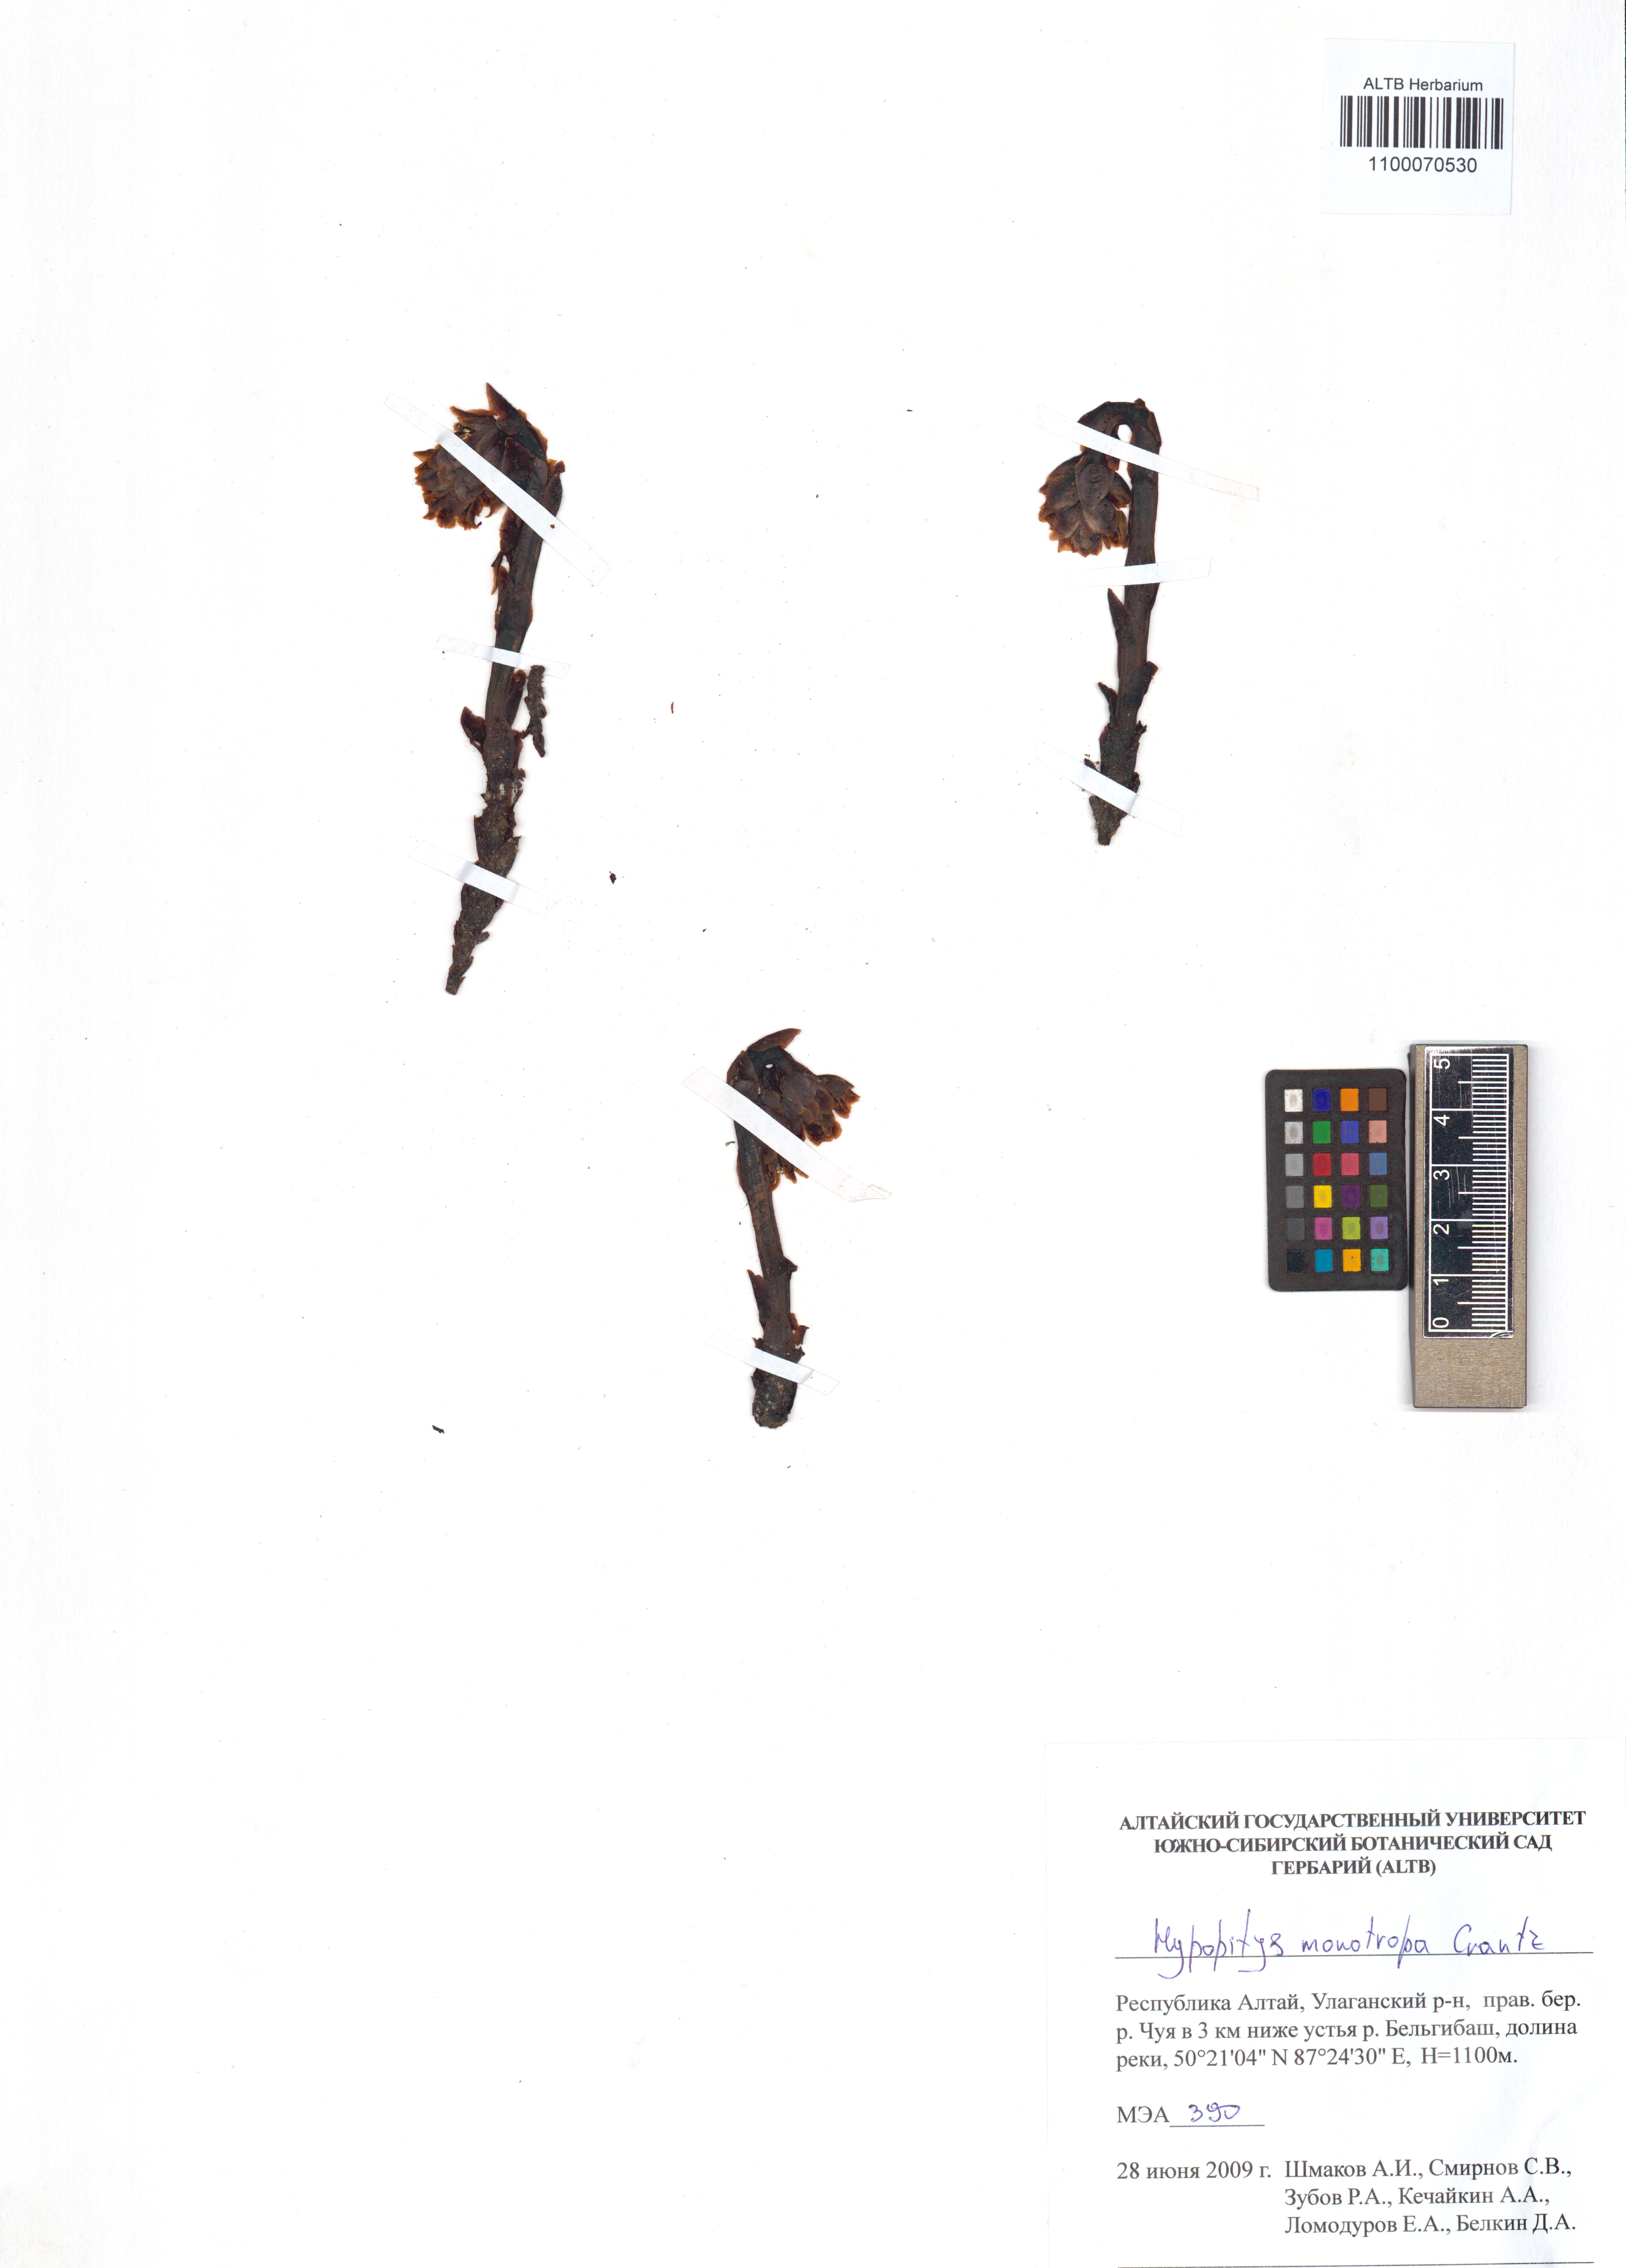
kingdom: Plantae
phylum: Tracheophyta
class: Magnoliopsida
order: Ericales
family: Ericaceae
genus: Hypopitys
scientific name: Hypopitys monotropa
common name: Yellow bird's-nest
